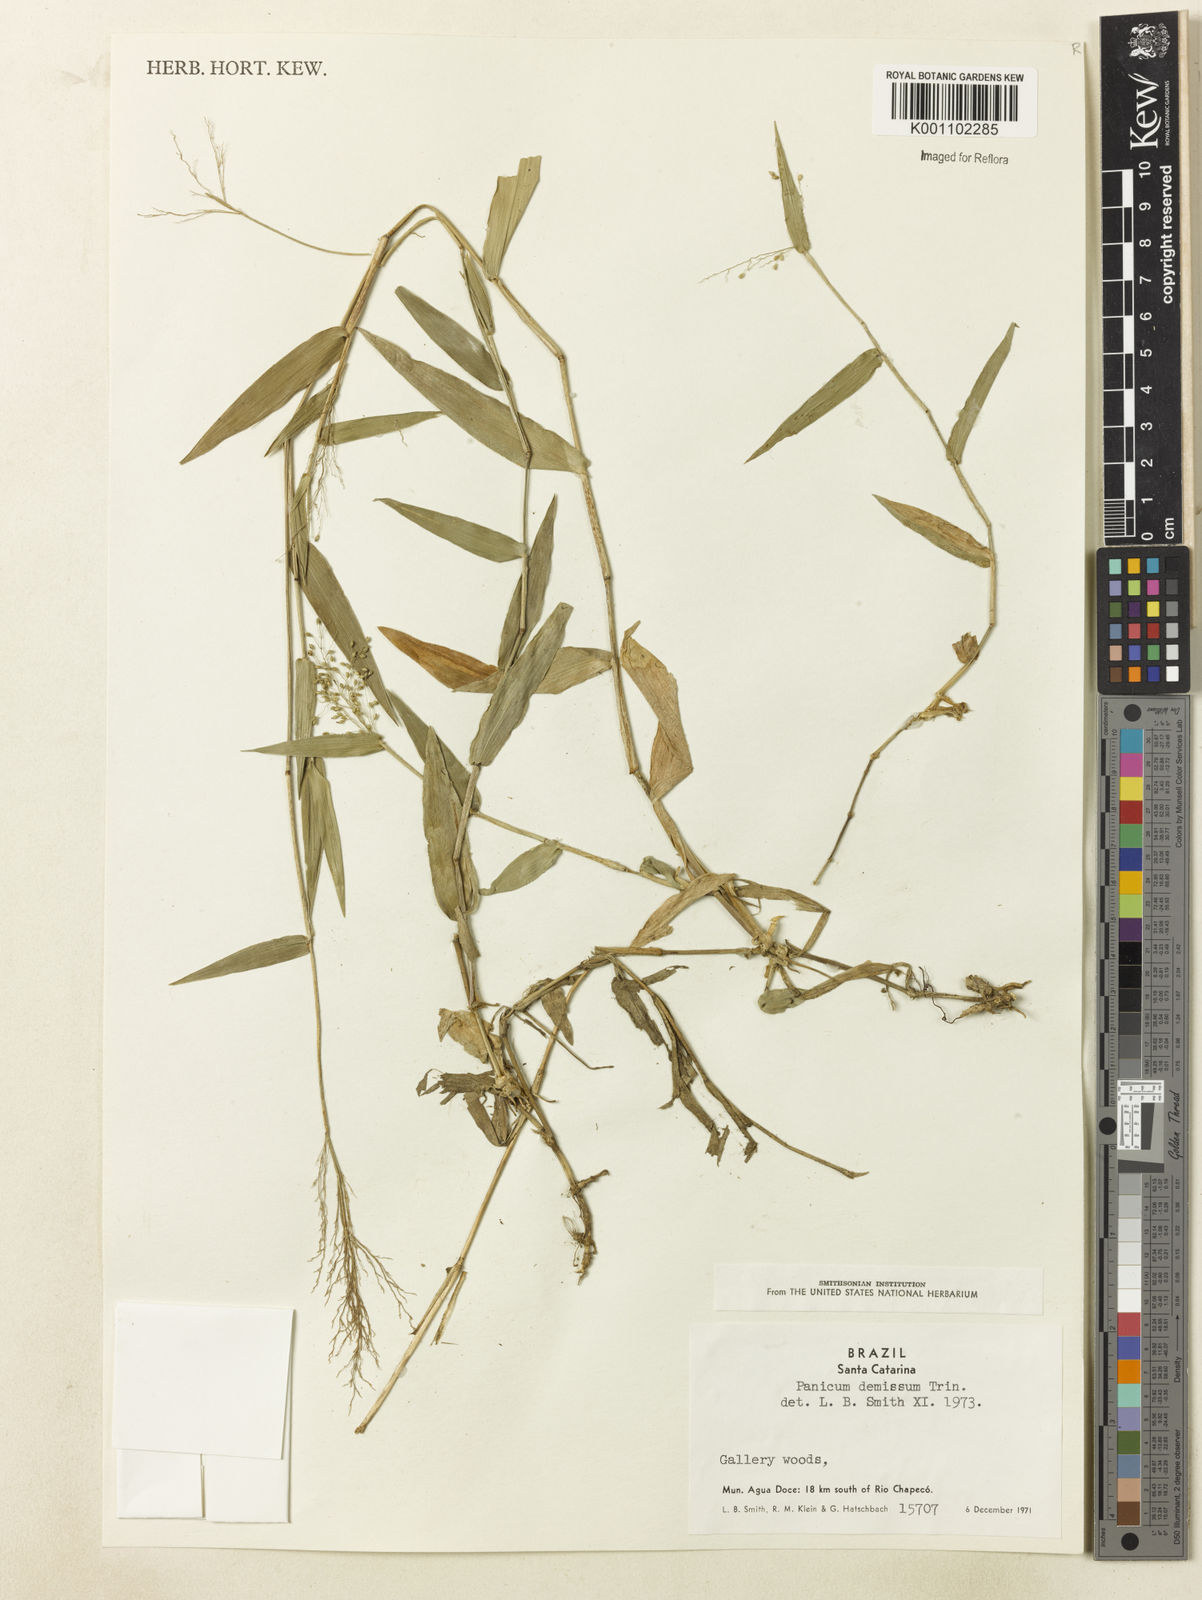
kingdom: Plantae
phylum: Tracheophyta
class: Liliopsida
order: Poales
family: Poaceae
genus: Dichanthelium
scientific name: Dichanthelium stigmosum
